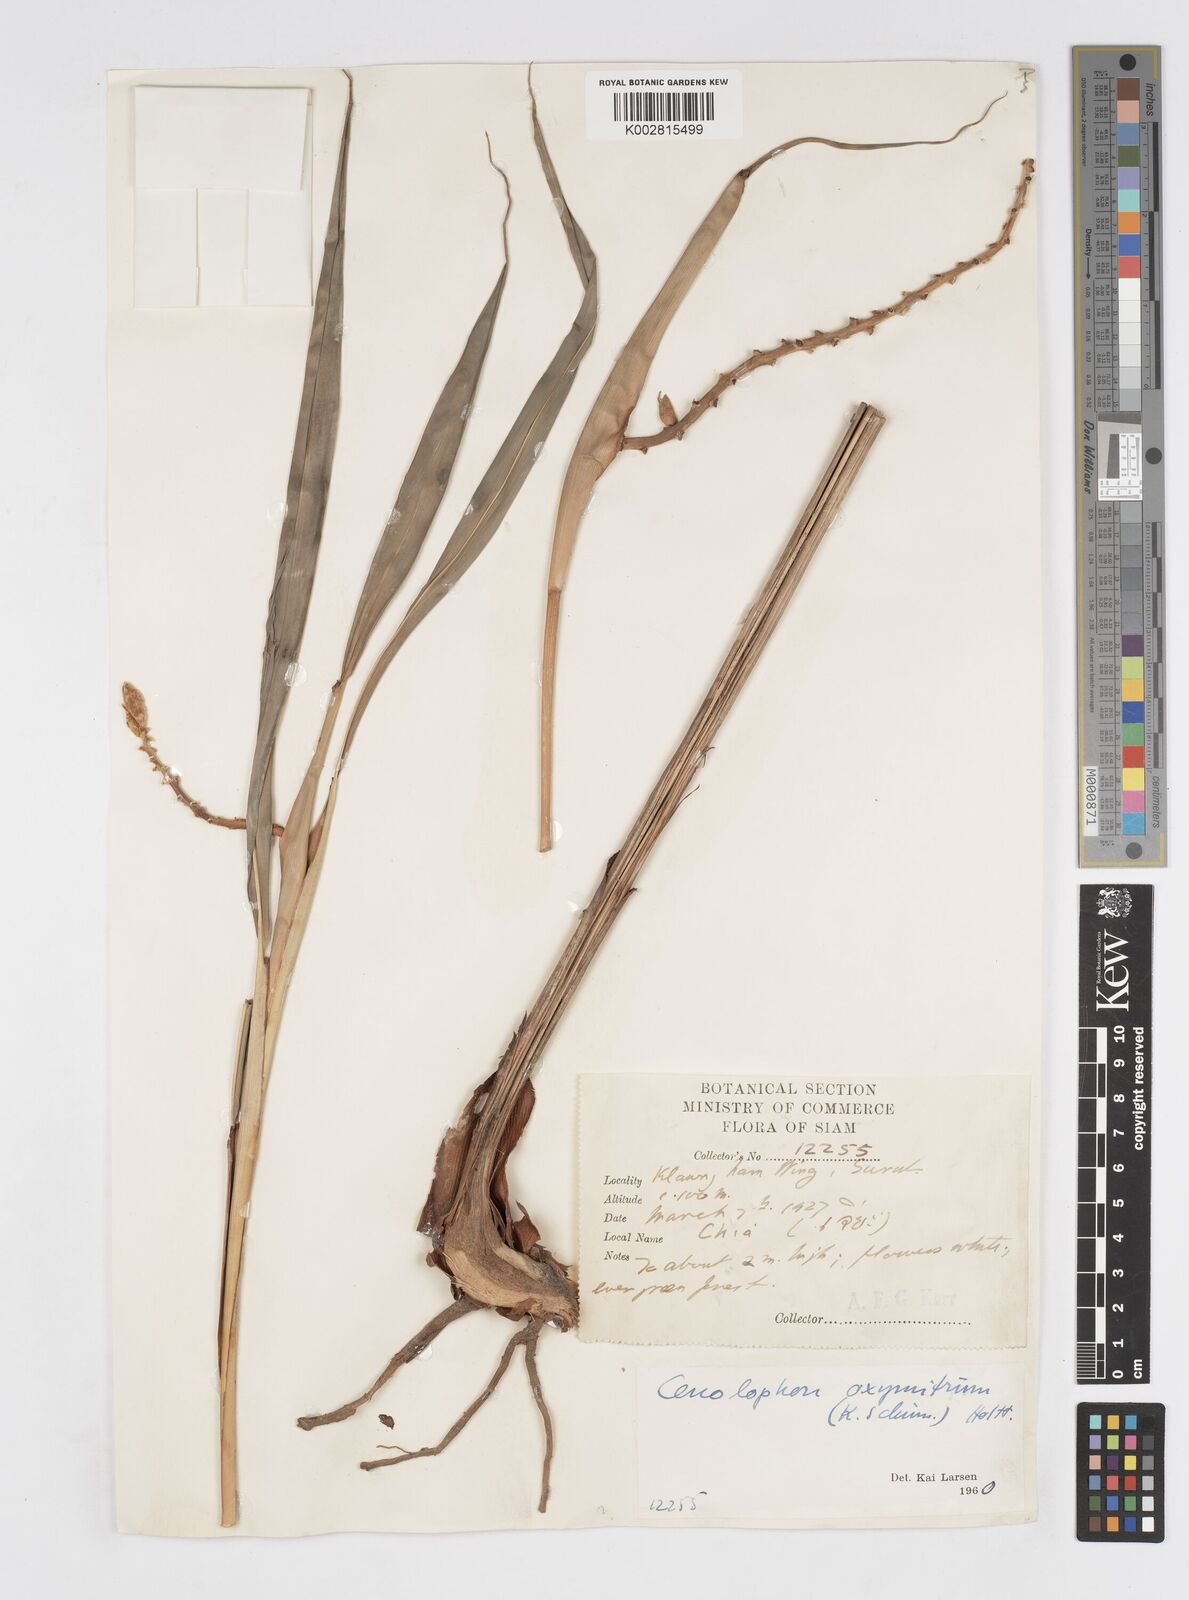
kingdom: Plantae
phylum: Tracheophyta
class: Liliopsida
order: Zingiberales
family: Zingiberaceae
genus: Alpinia
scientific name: Alpinia oxymitra
